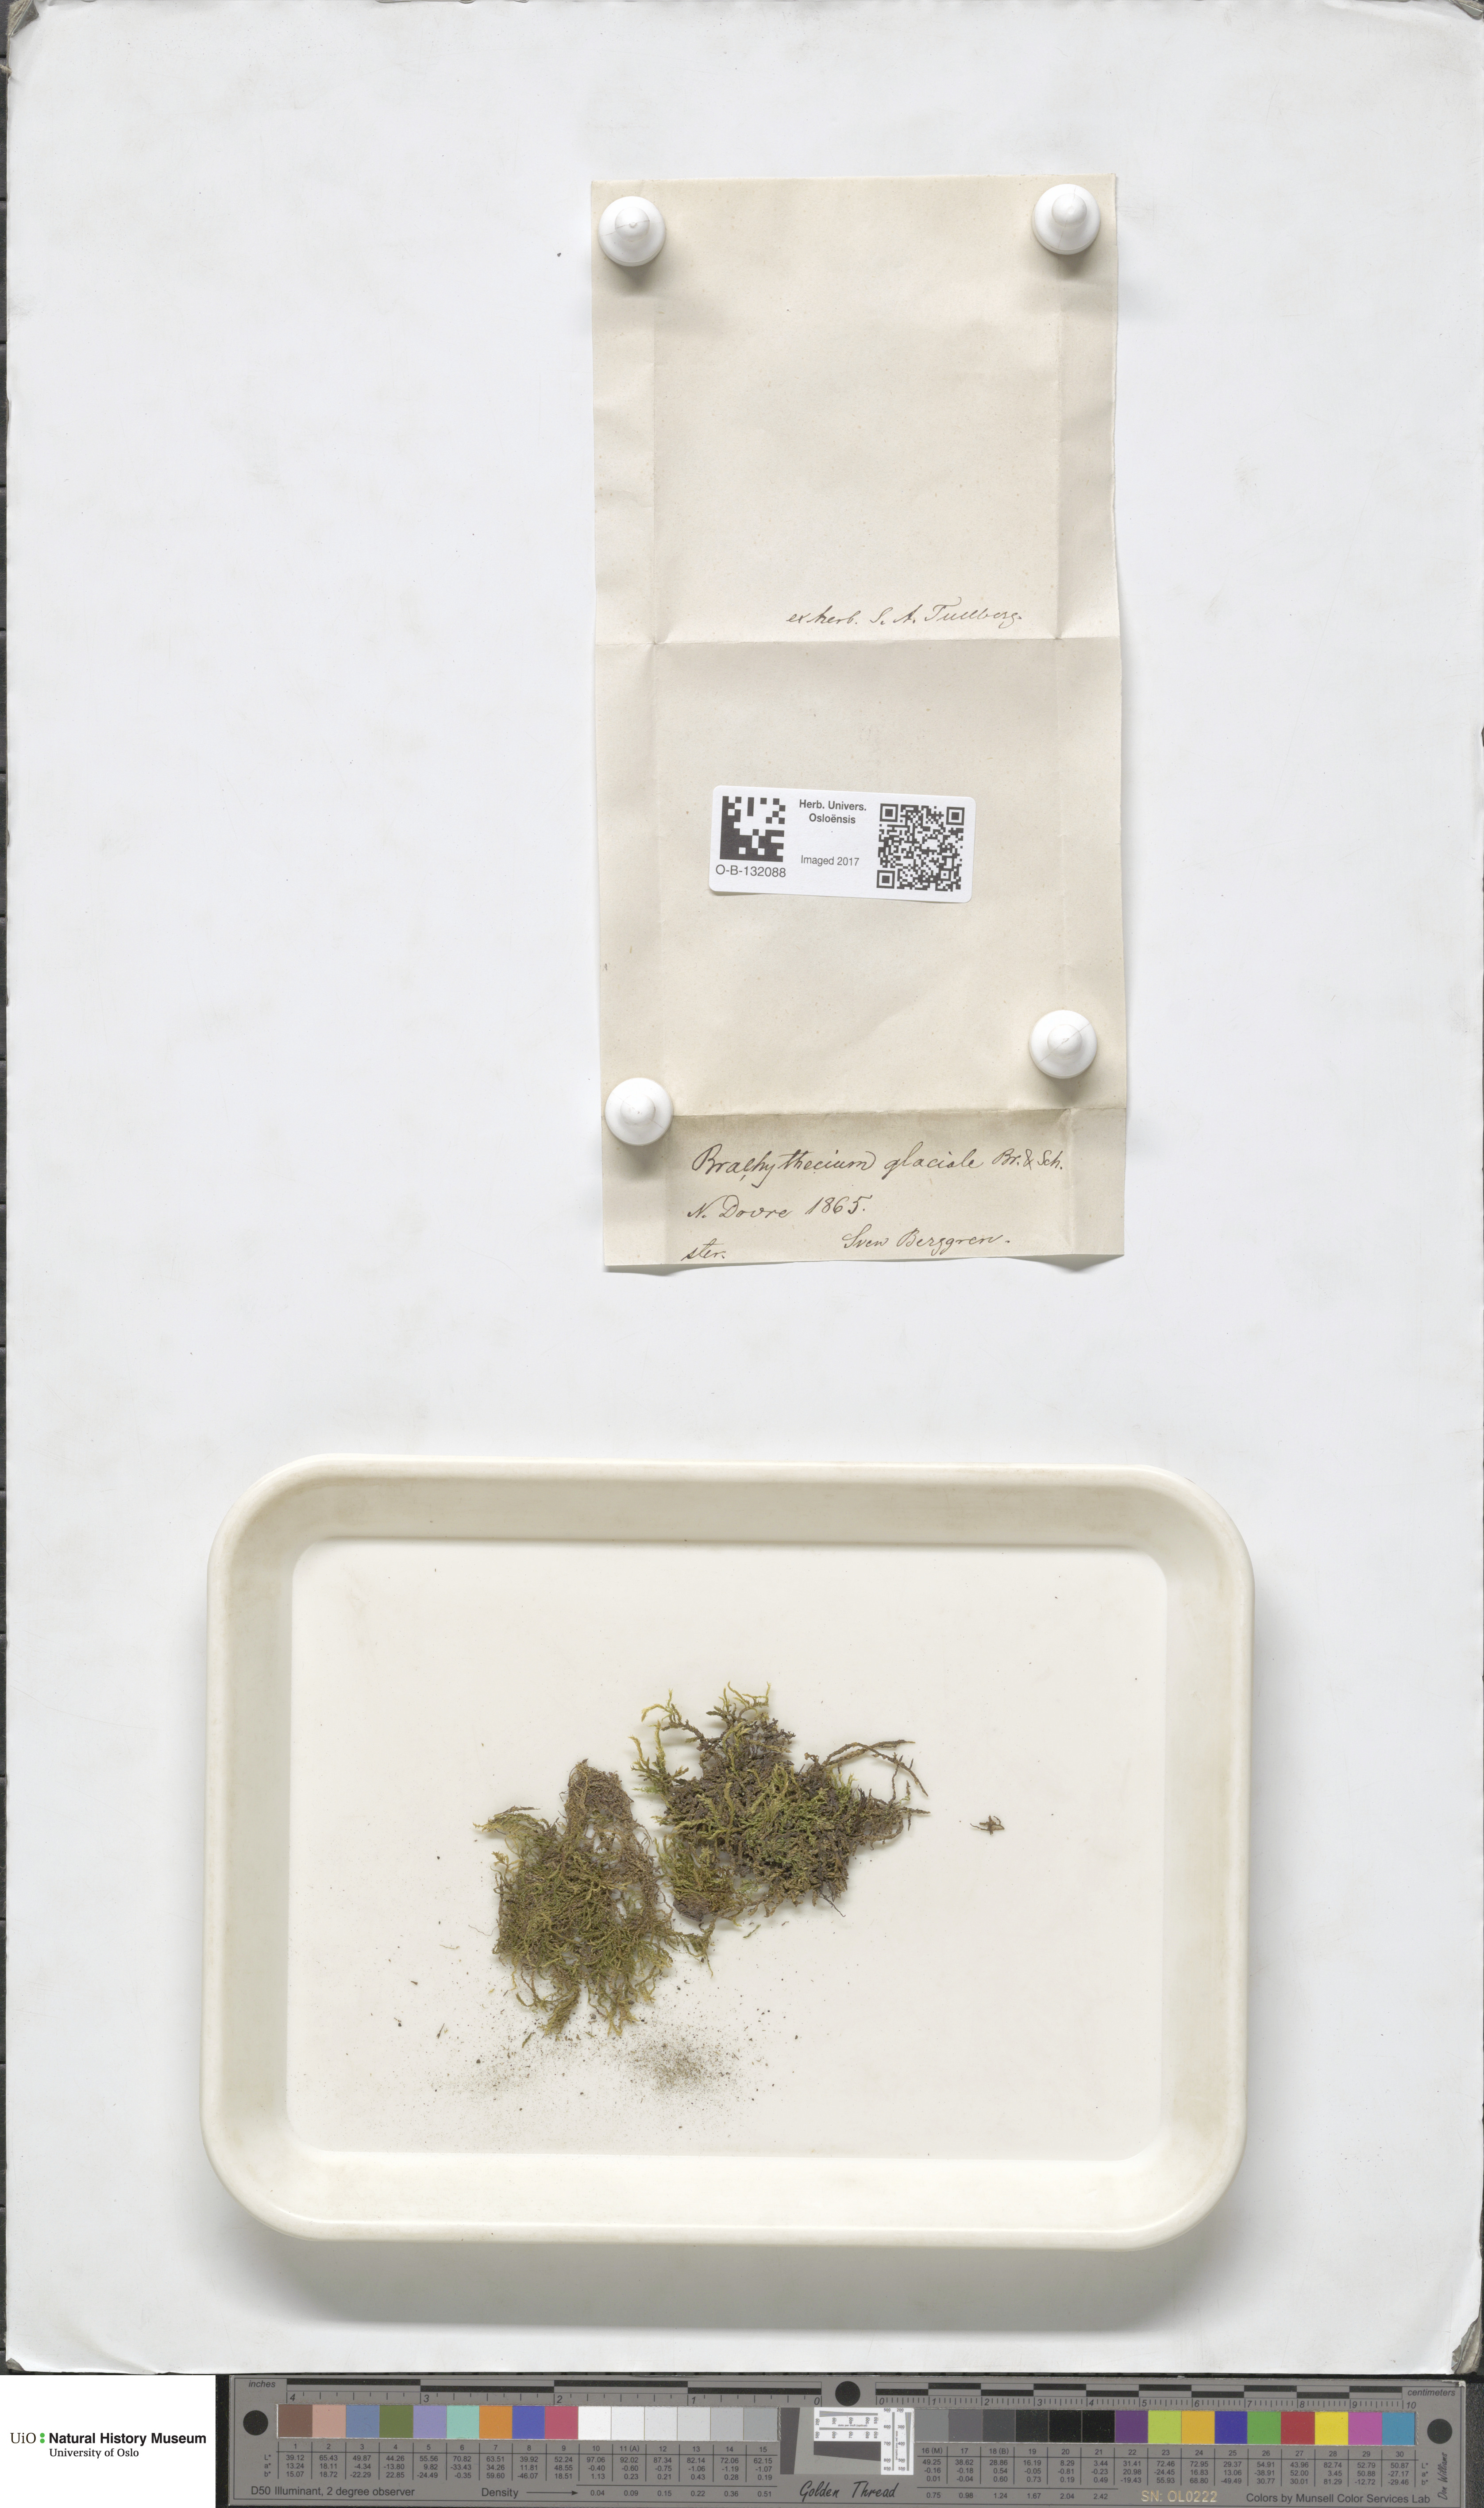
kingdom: Plantae
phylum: Bryophyta
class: Bryopsida
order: Hypnales
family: Brachytheciaceae
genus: Sciuro-hypnum
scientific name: Sciuro-hypnum glaciale
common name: Snow feather-moss
